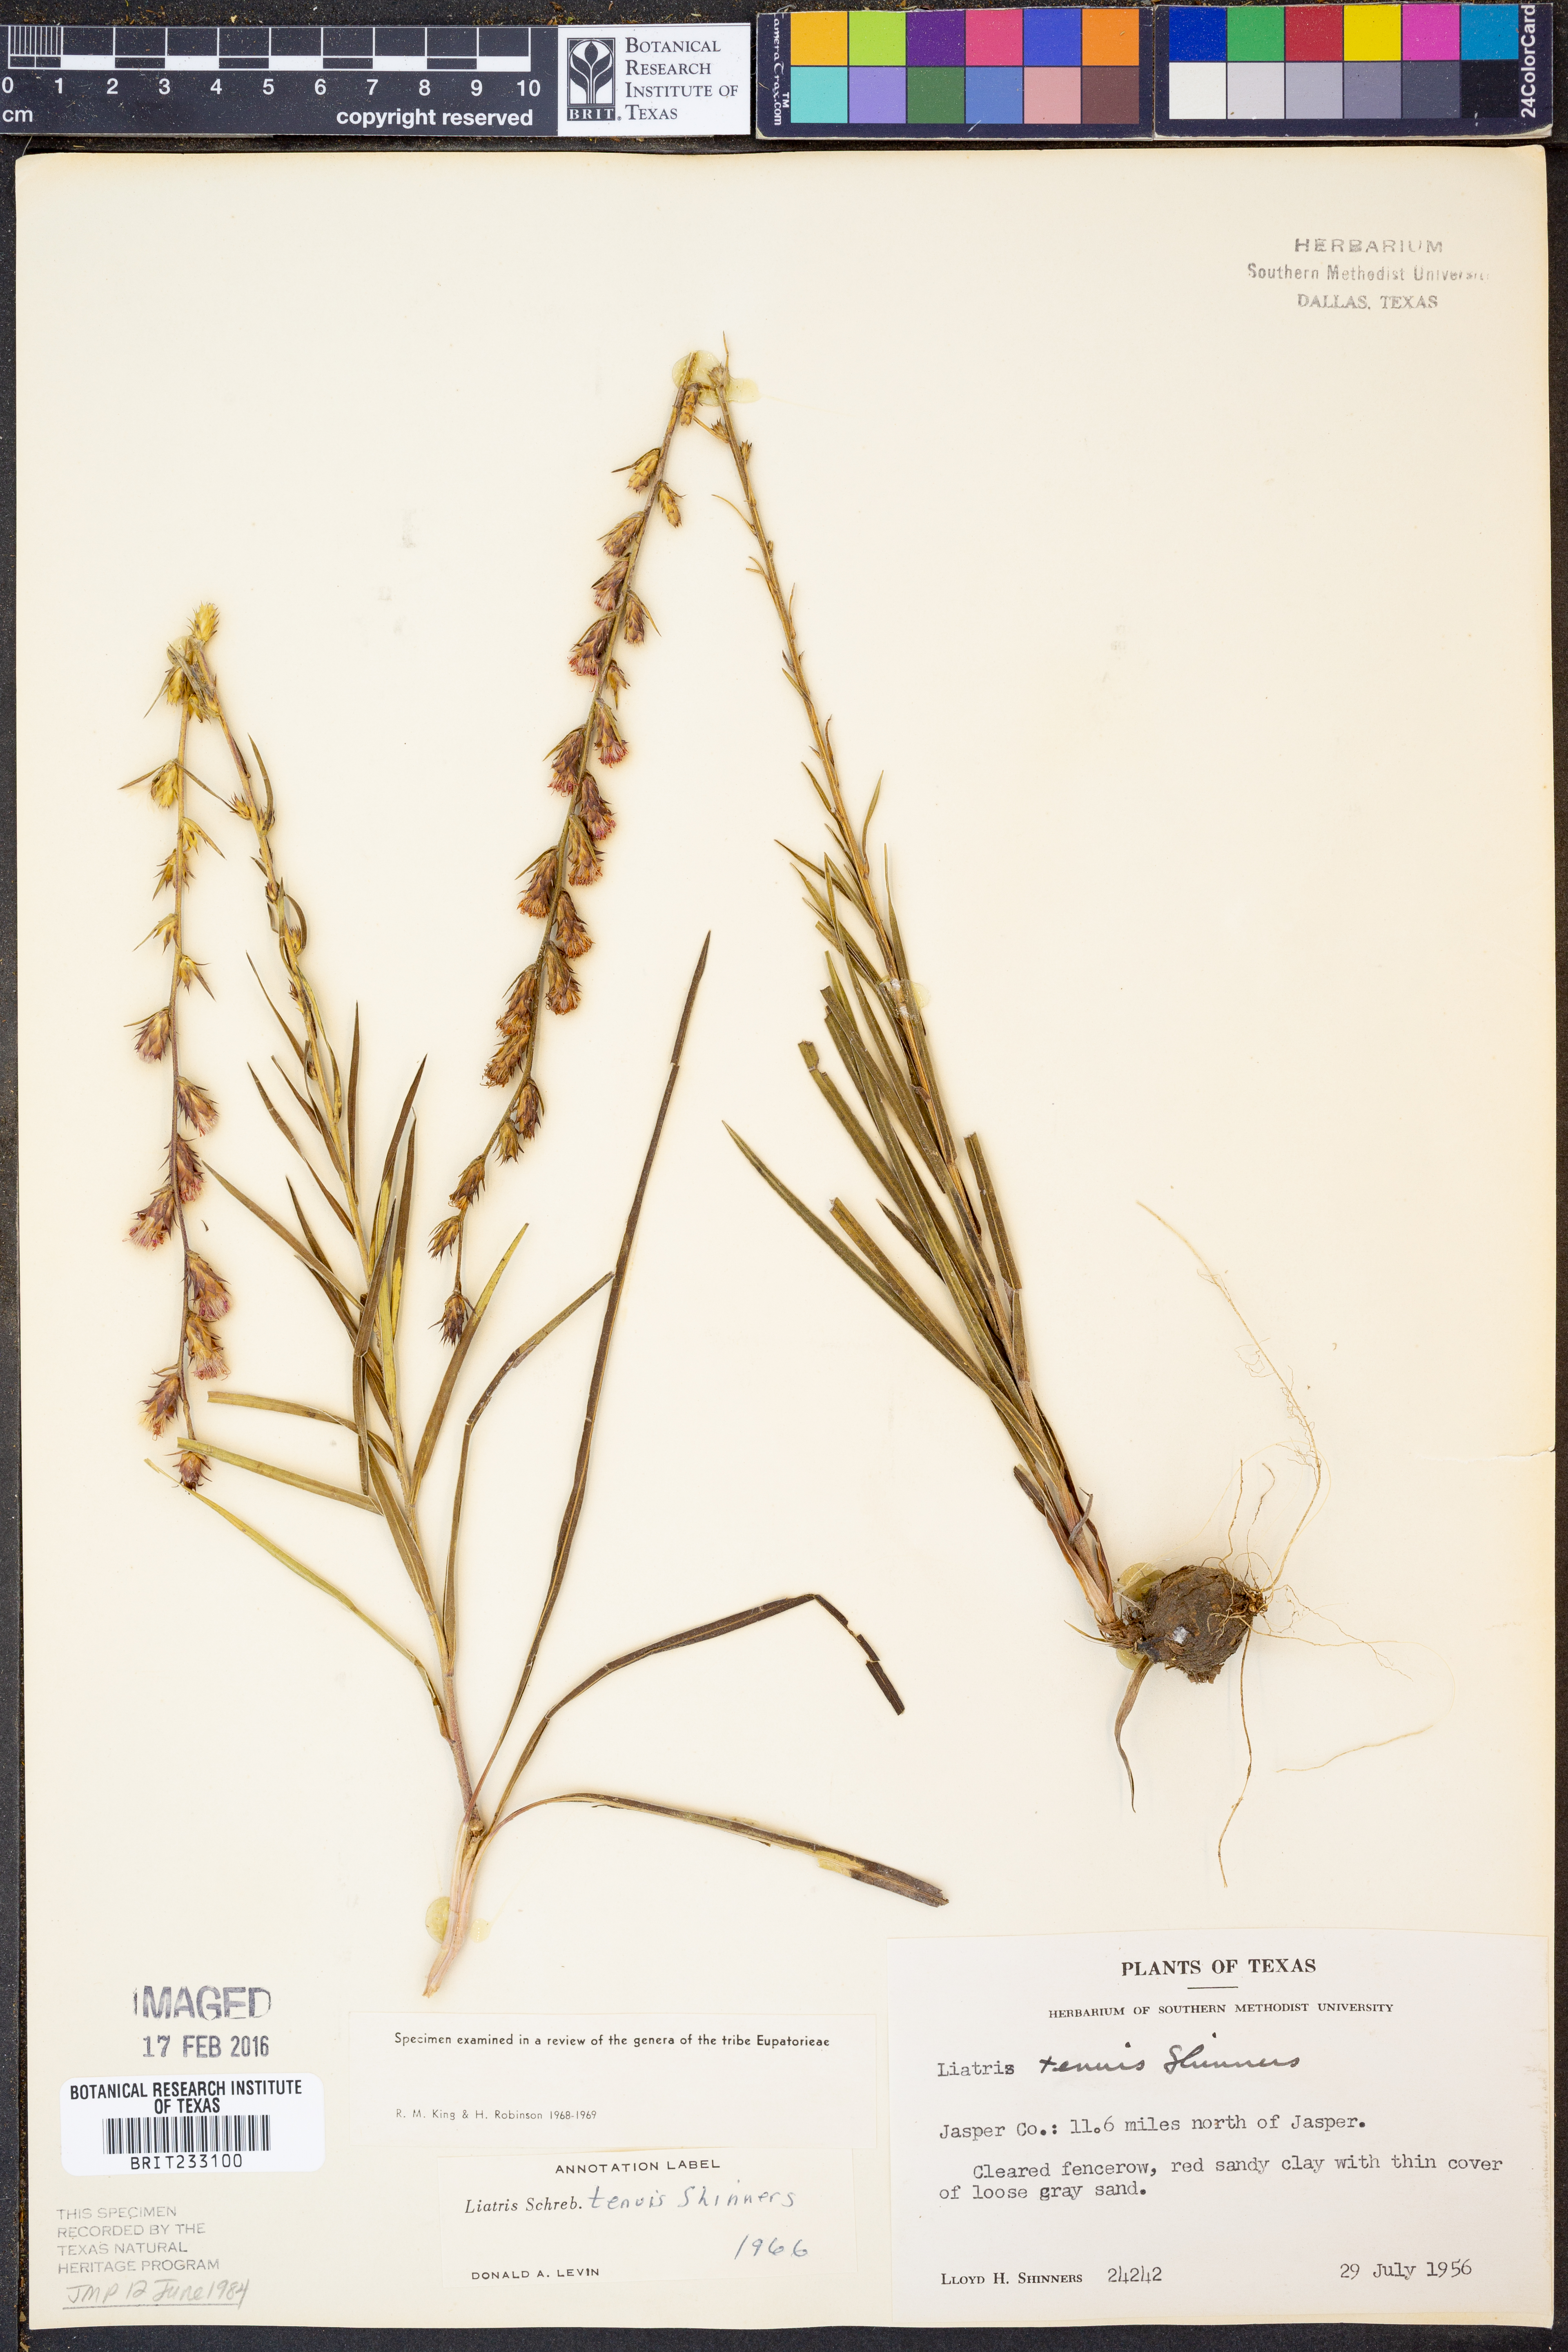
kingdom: Plantae
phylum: Tracheophyta
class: Magnoliopsida
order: Asterales
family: Asteraceae
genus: Liatris
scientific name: Liatris tenuis
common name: Shinner's gayfeather
